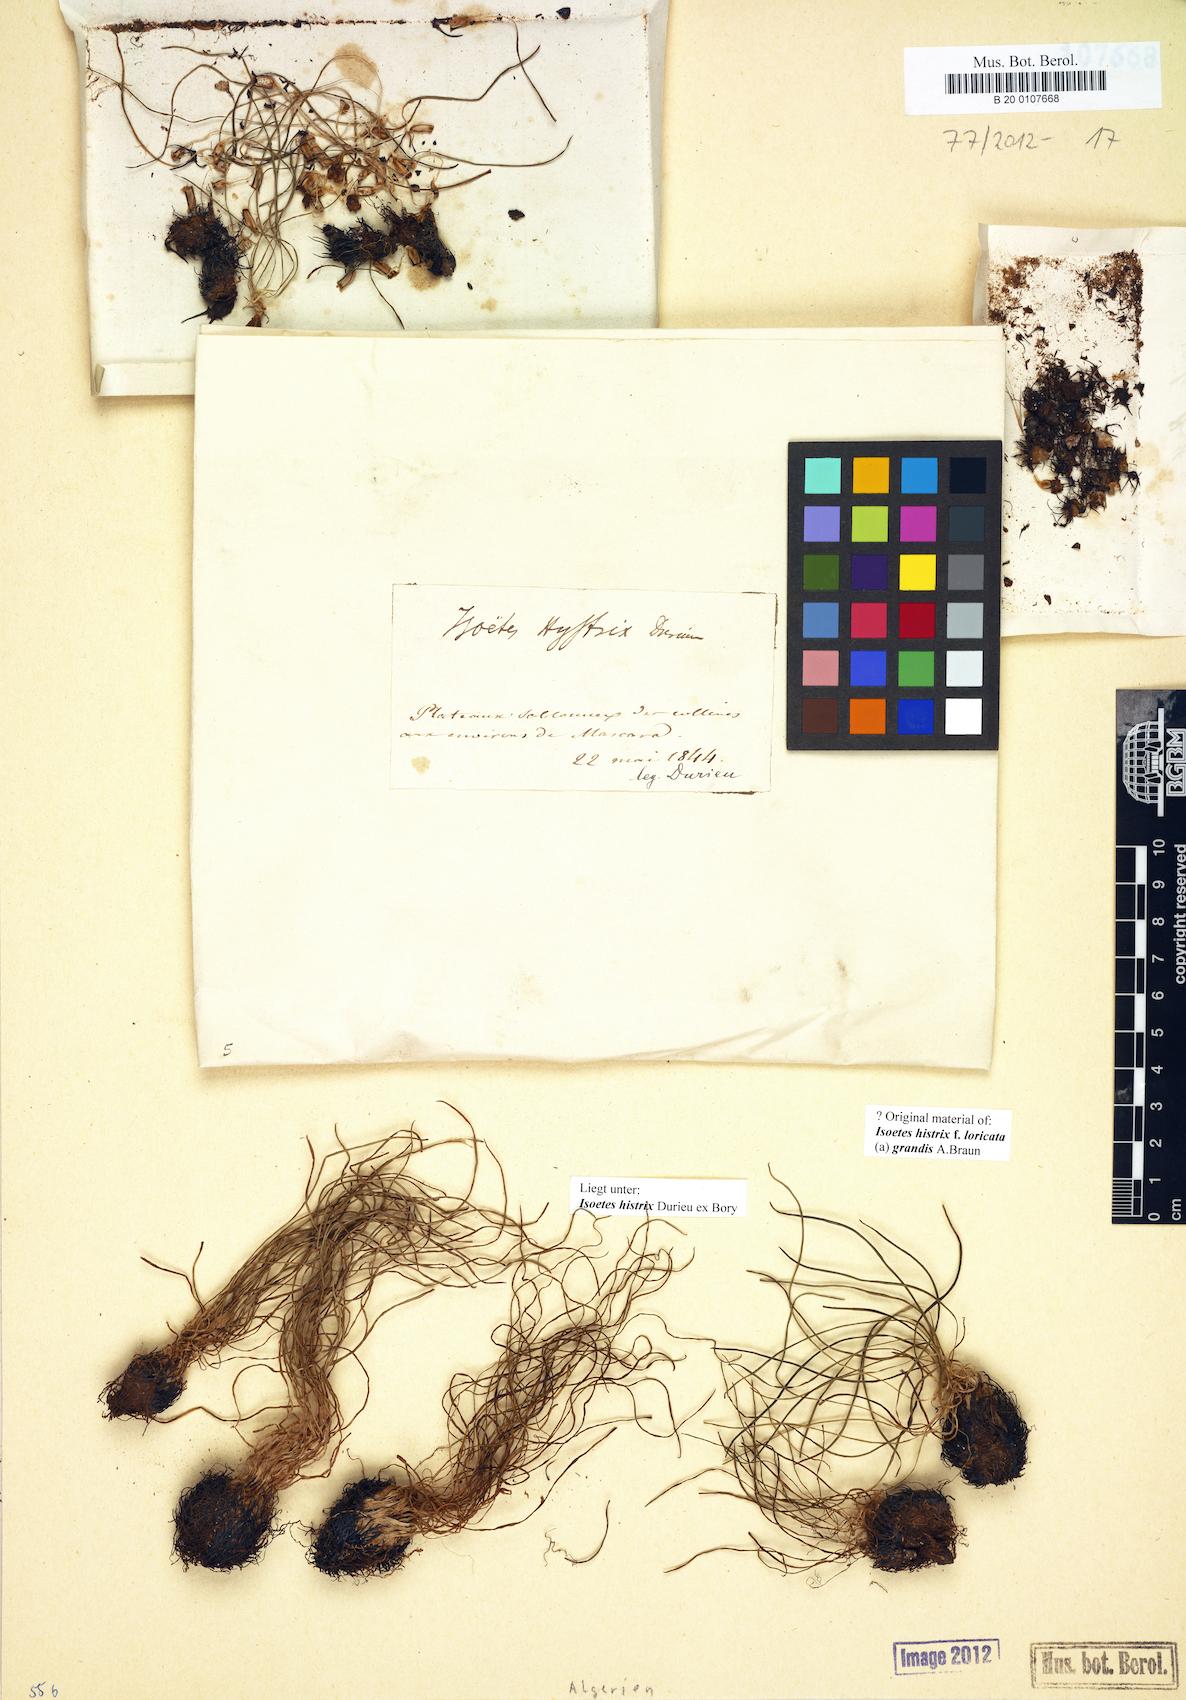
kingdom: Plantae
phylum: Tracheophyta
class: Lycopodiopsida
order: Isoetales
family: Isoetaceae
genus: Isoetes
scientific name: Isoetes histrix
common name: Land quillwort
